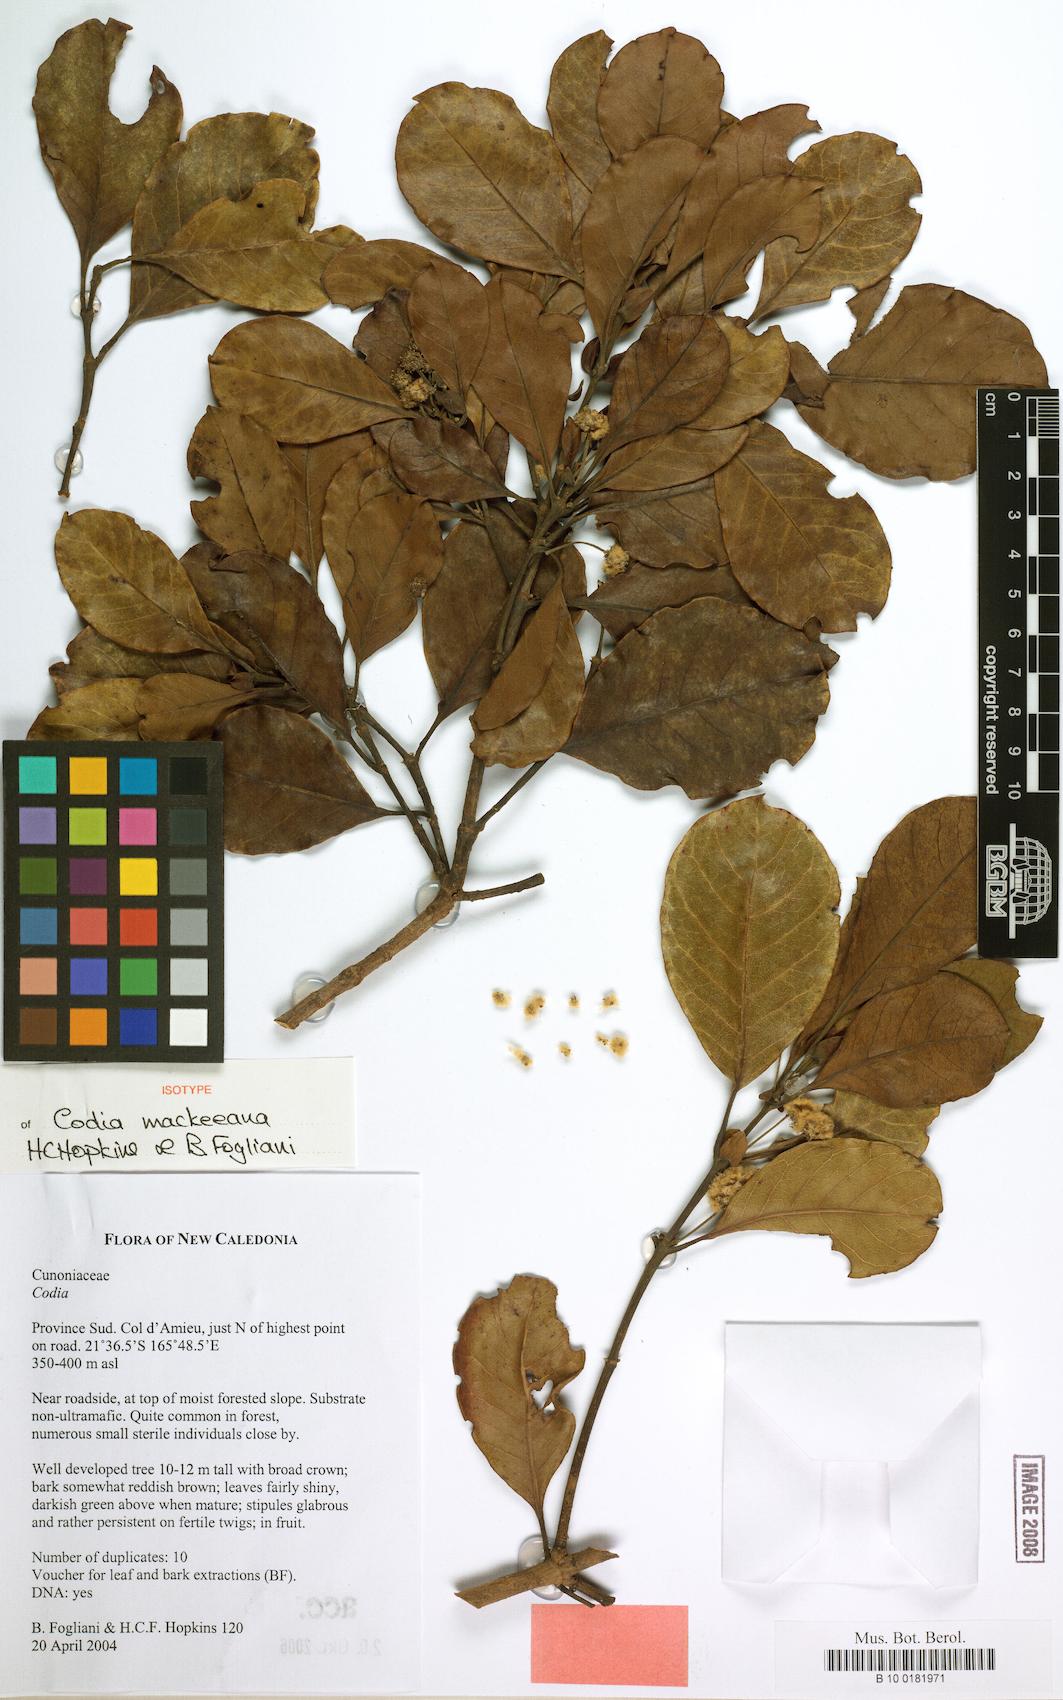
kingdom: Plantae
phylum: Tracheophyta
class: Magnoliopsida
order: Oxalidales
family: Cunoniaceae
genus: Codia
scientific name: Codia mackeeana
